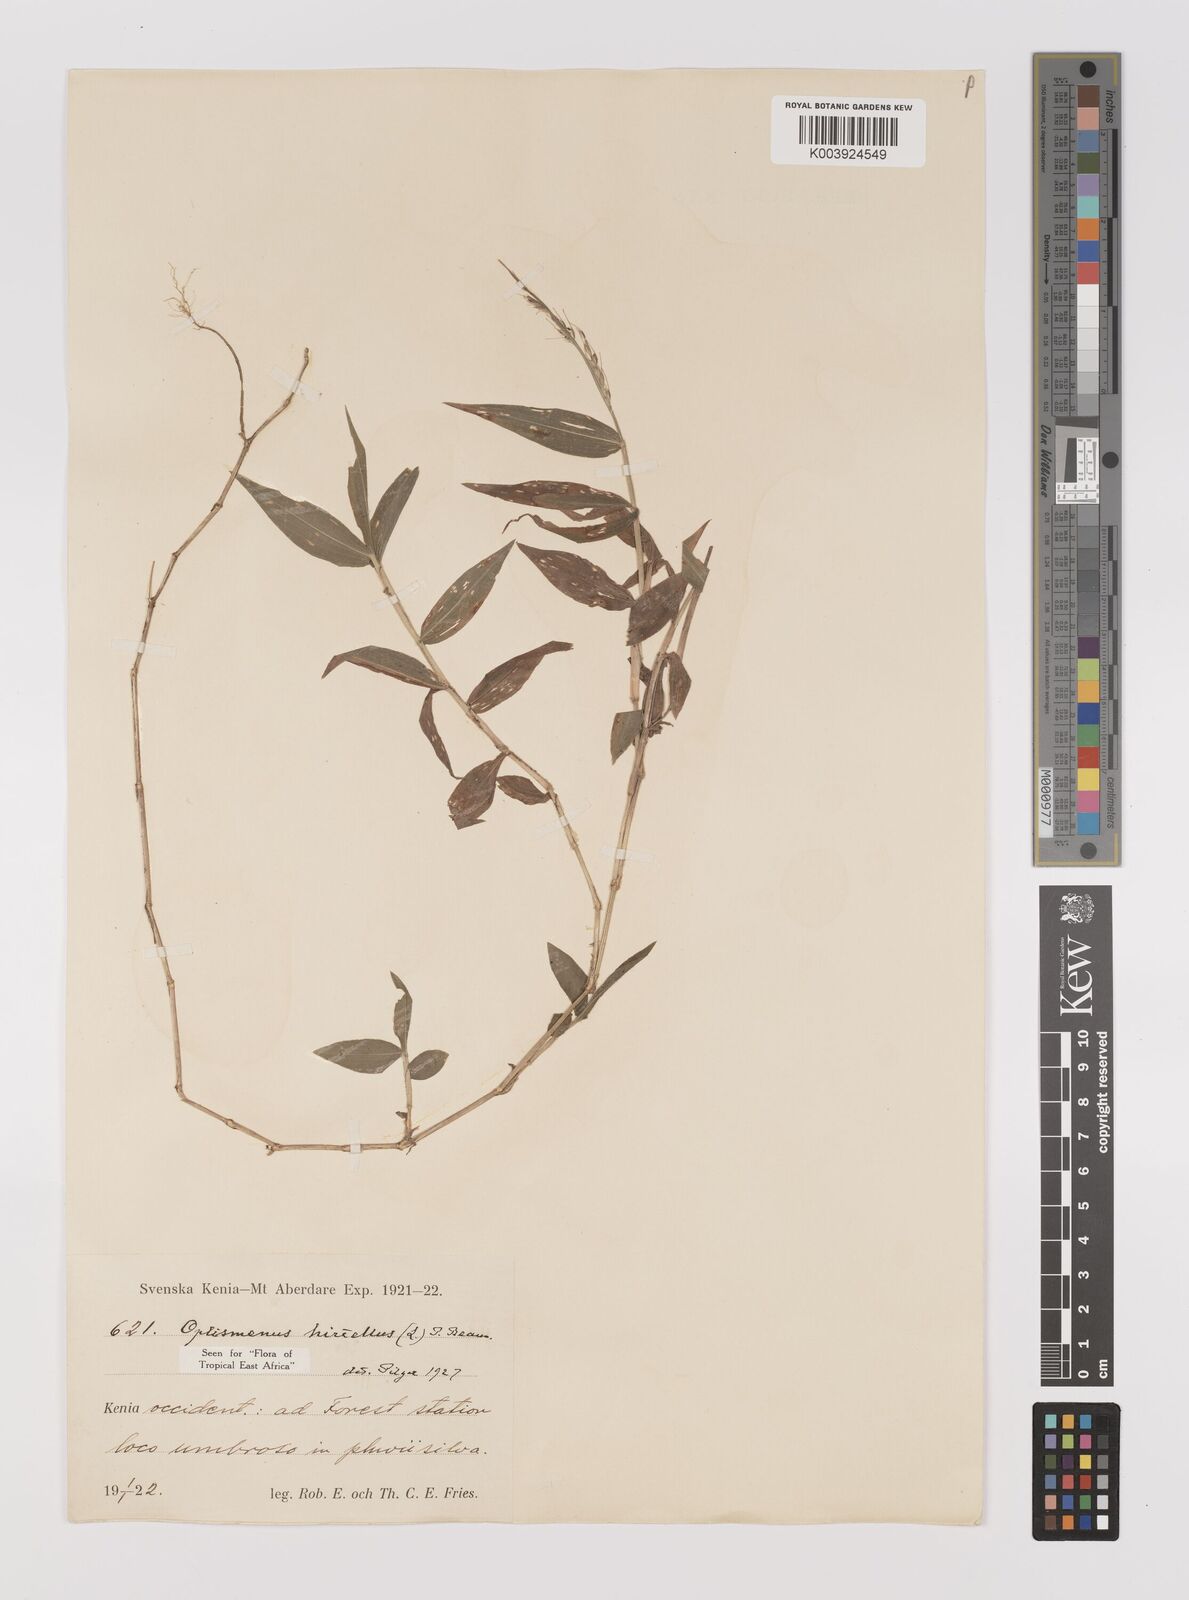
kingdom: Plantae
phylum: Tracheophyta
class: Liliopsida
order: Poales
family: Poaceae
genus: Oplismenus
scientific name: Oplismenus hirtellus
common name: Basketgrass
